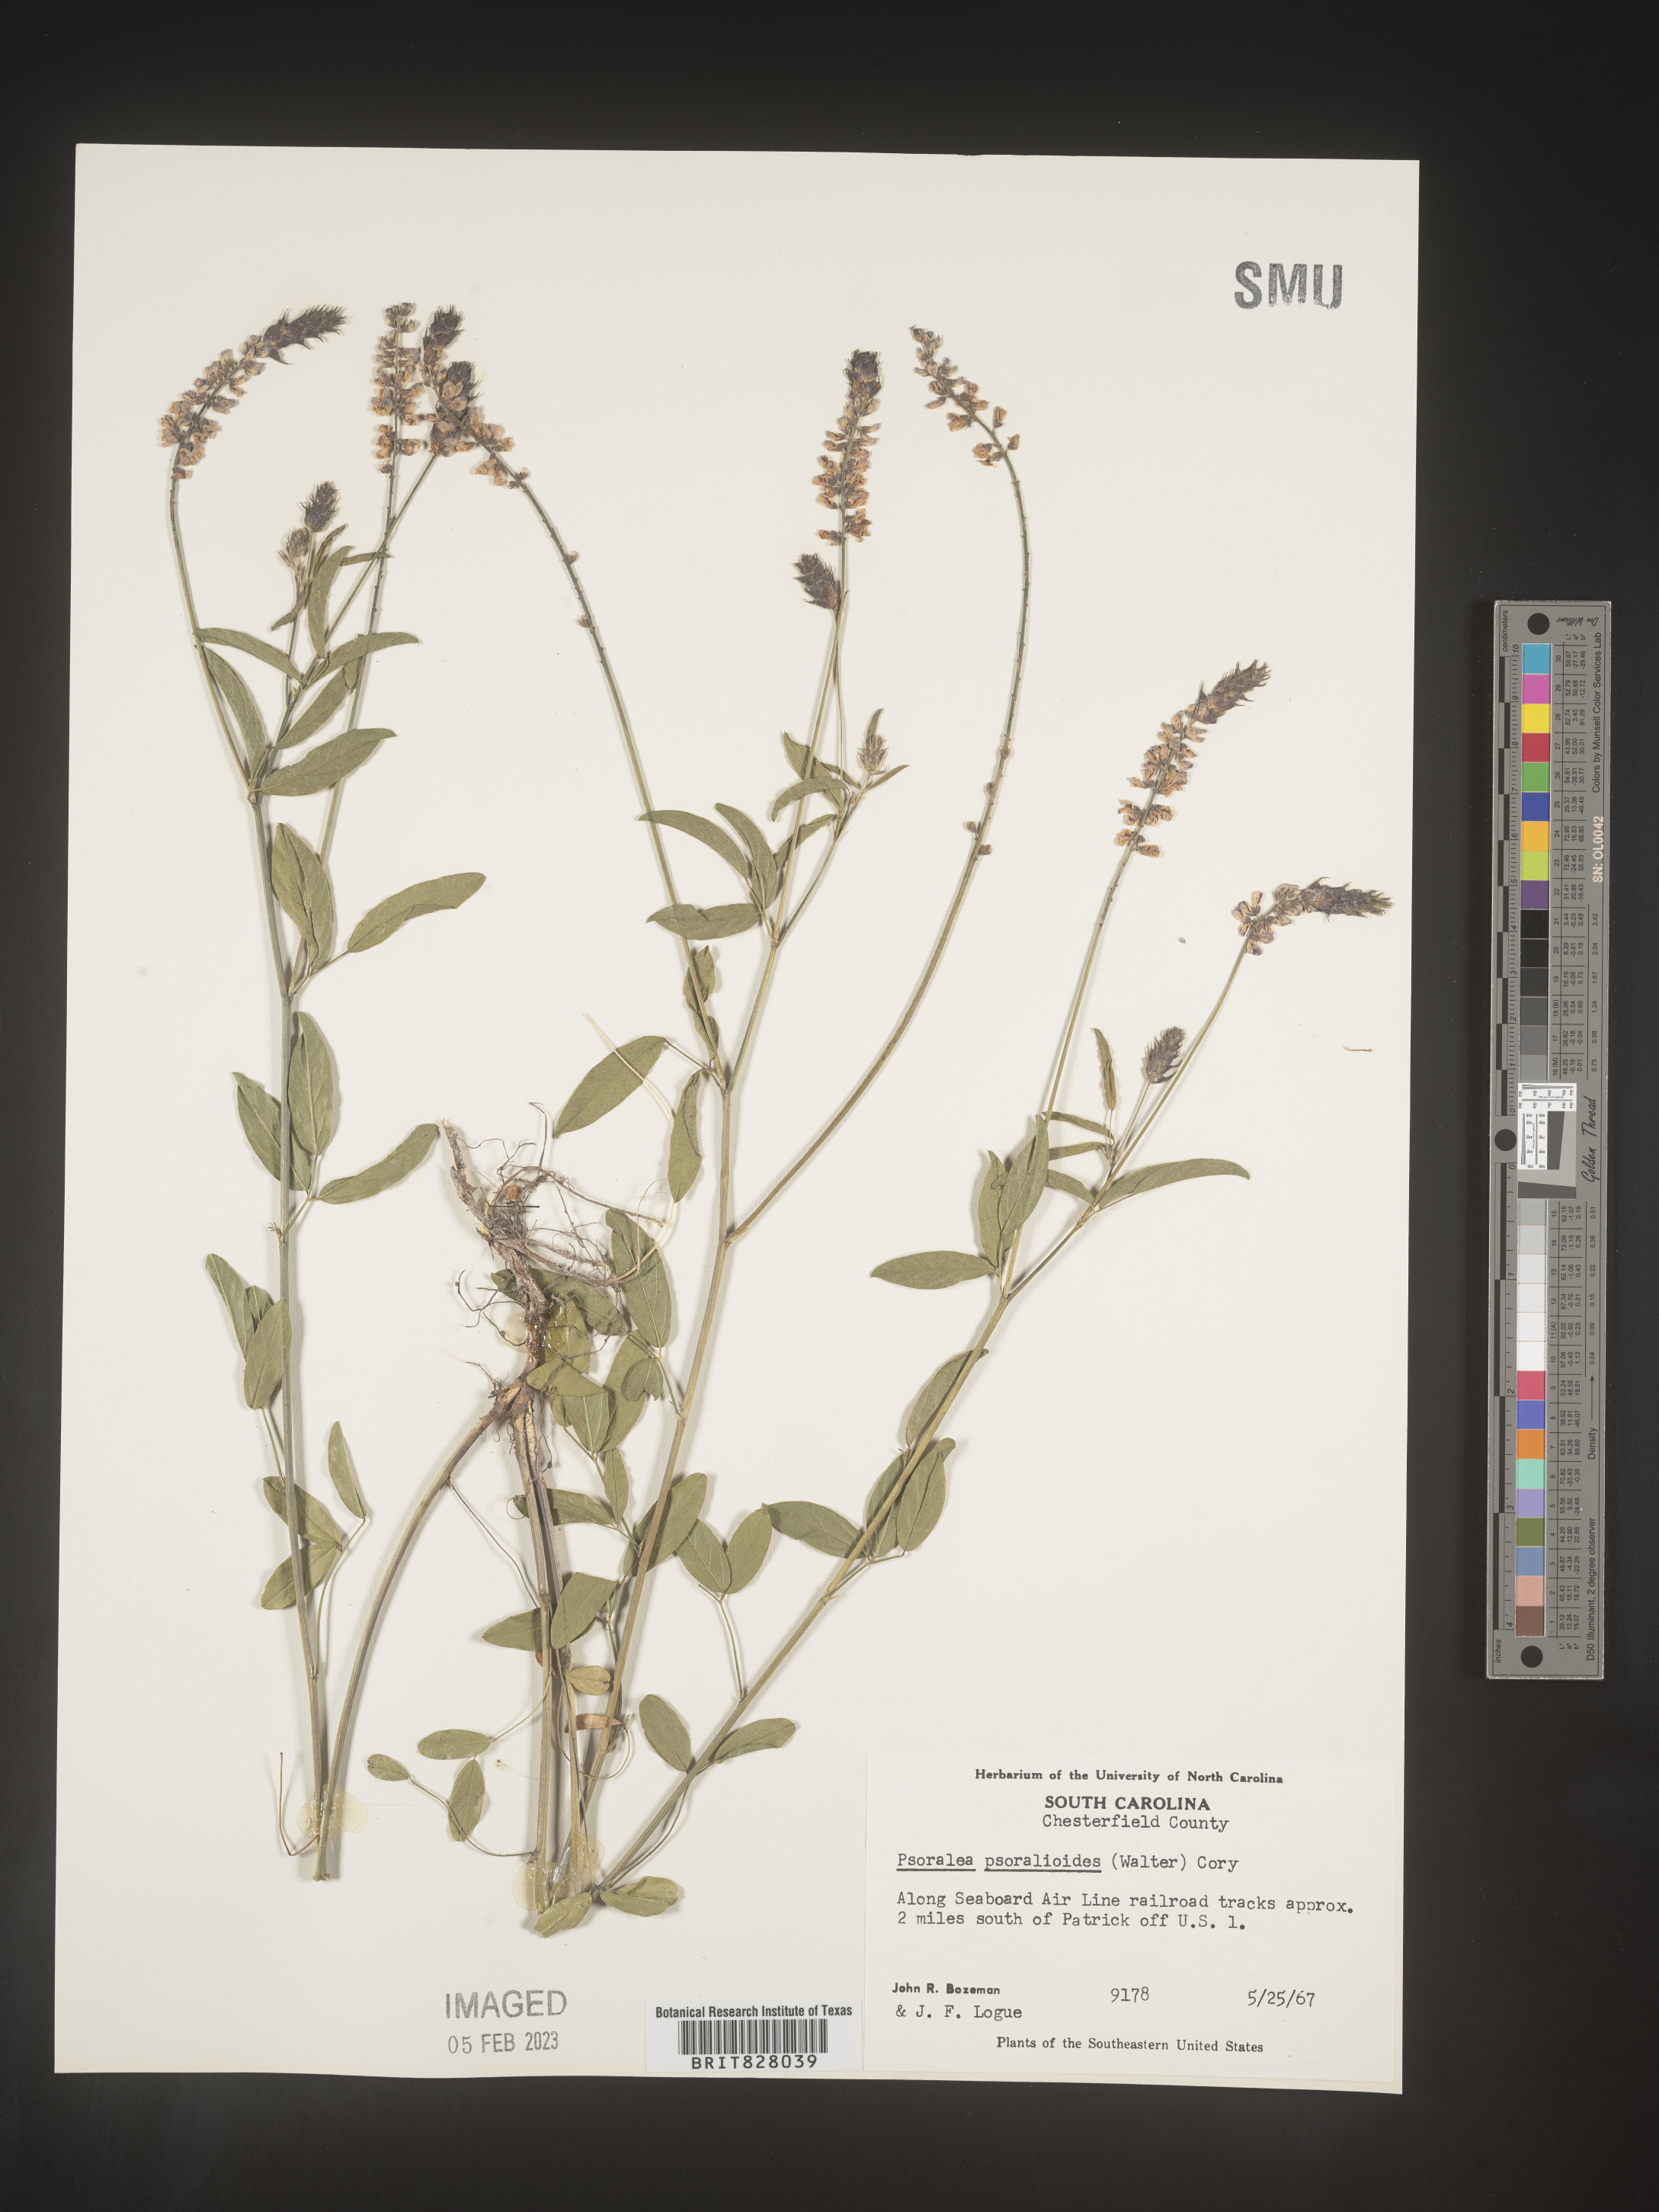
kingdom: Plantae
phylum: Tracheophyta
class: Magnoliopsida
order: Fabales
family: Fabaceae
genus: Orbexilum
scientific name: Orbexilum pedunculatum
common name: Sampson's snakeroot
